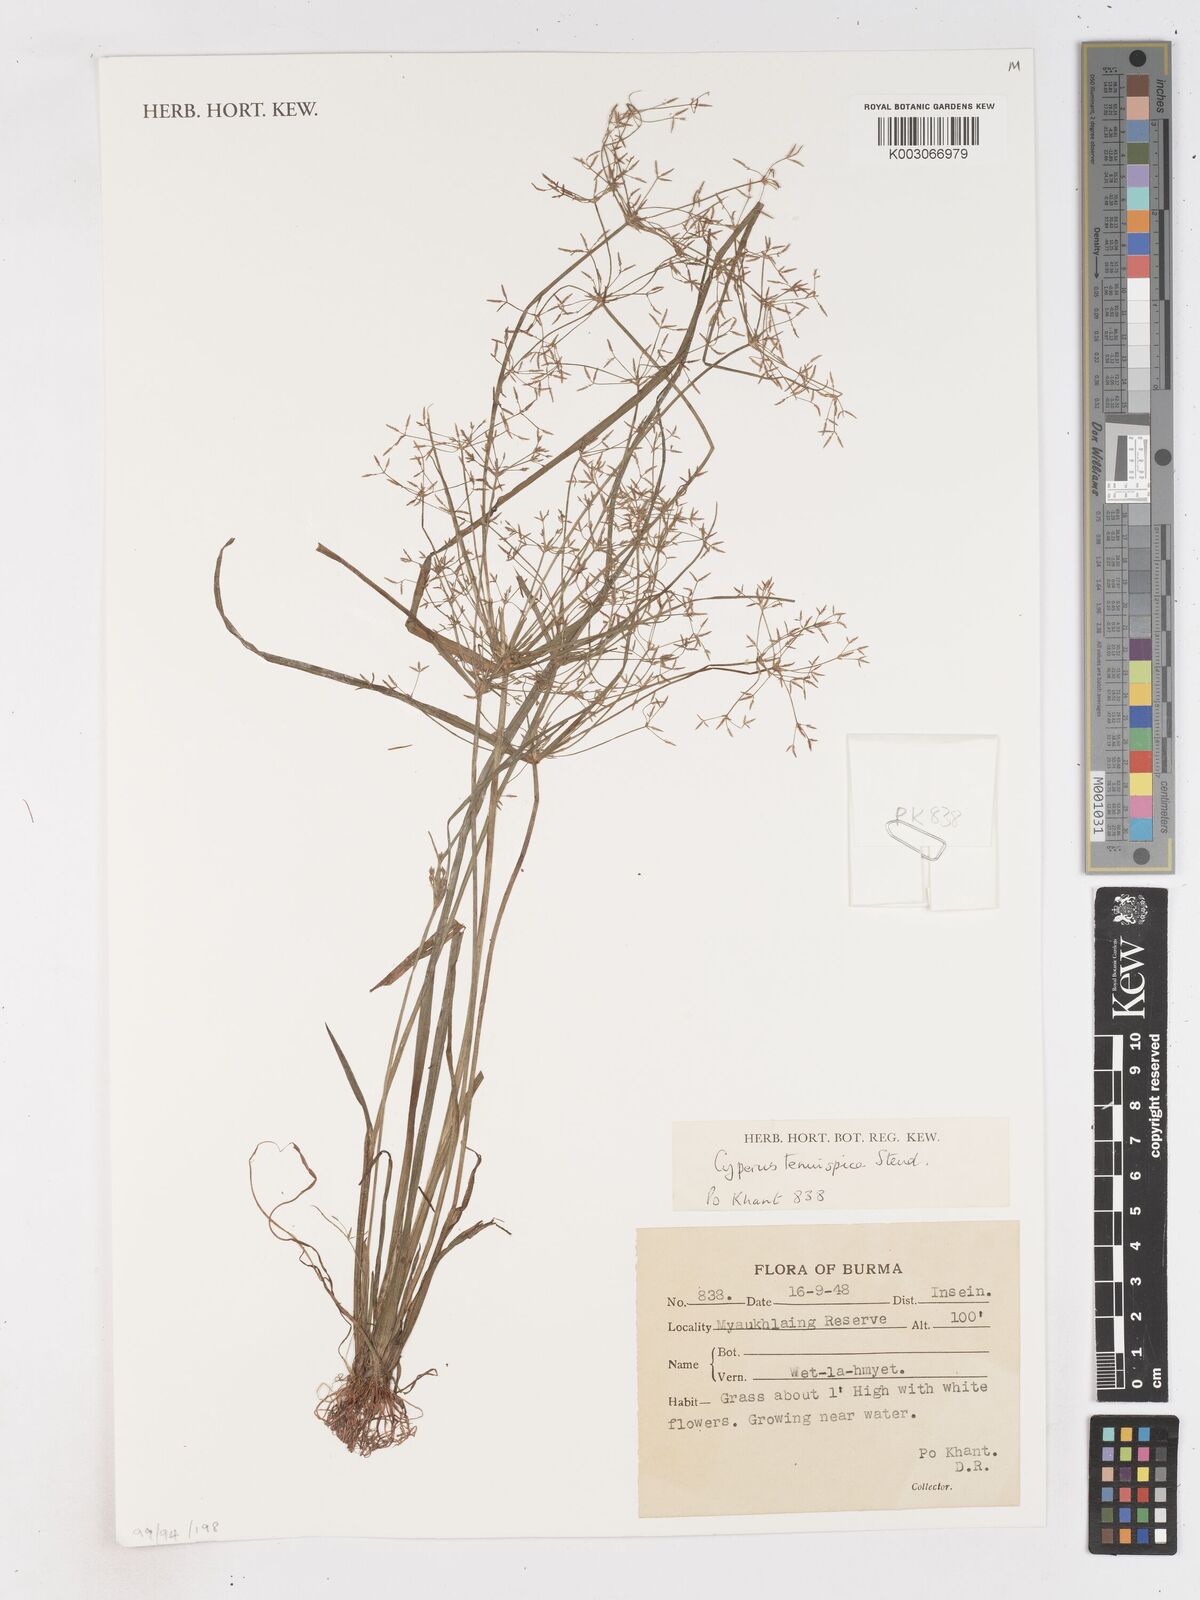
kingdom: Plantae
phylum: Tracheophyta
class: Liliopsida
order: Poales
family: Cyperaceae
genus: Cyperus
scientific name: Cyperus tenuispica
